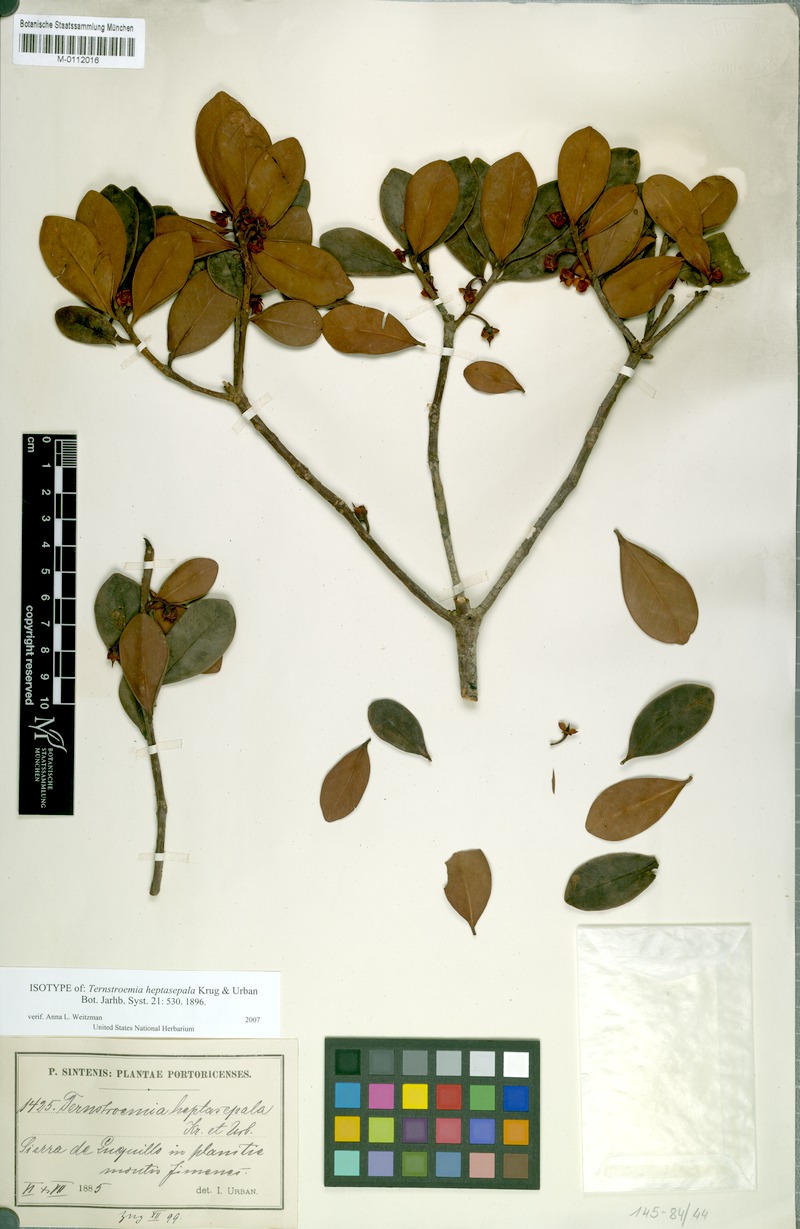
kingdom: Plantae
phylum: Tracheophyta
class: Magnoliopsida
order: Ericales
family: Pentaphylacaceae
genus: Ternstroemia
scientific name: Ternstroemia heptasepala
